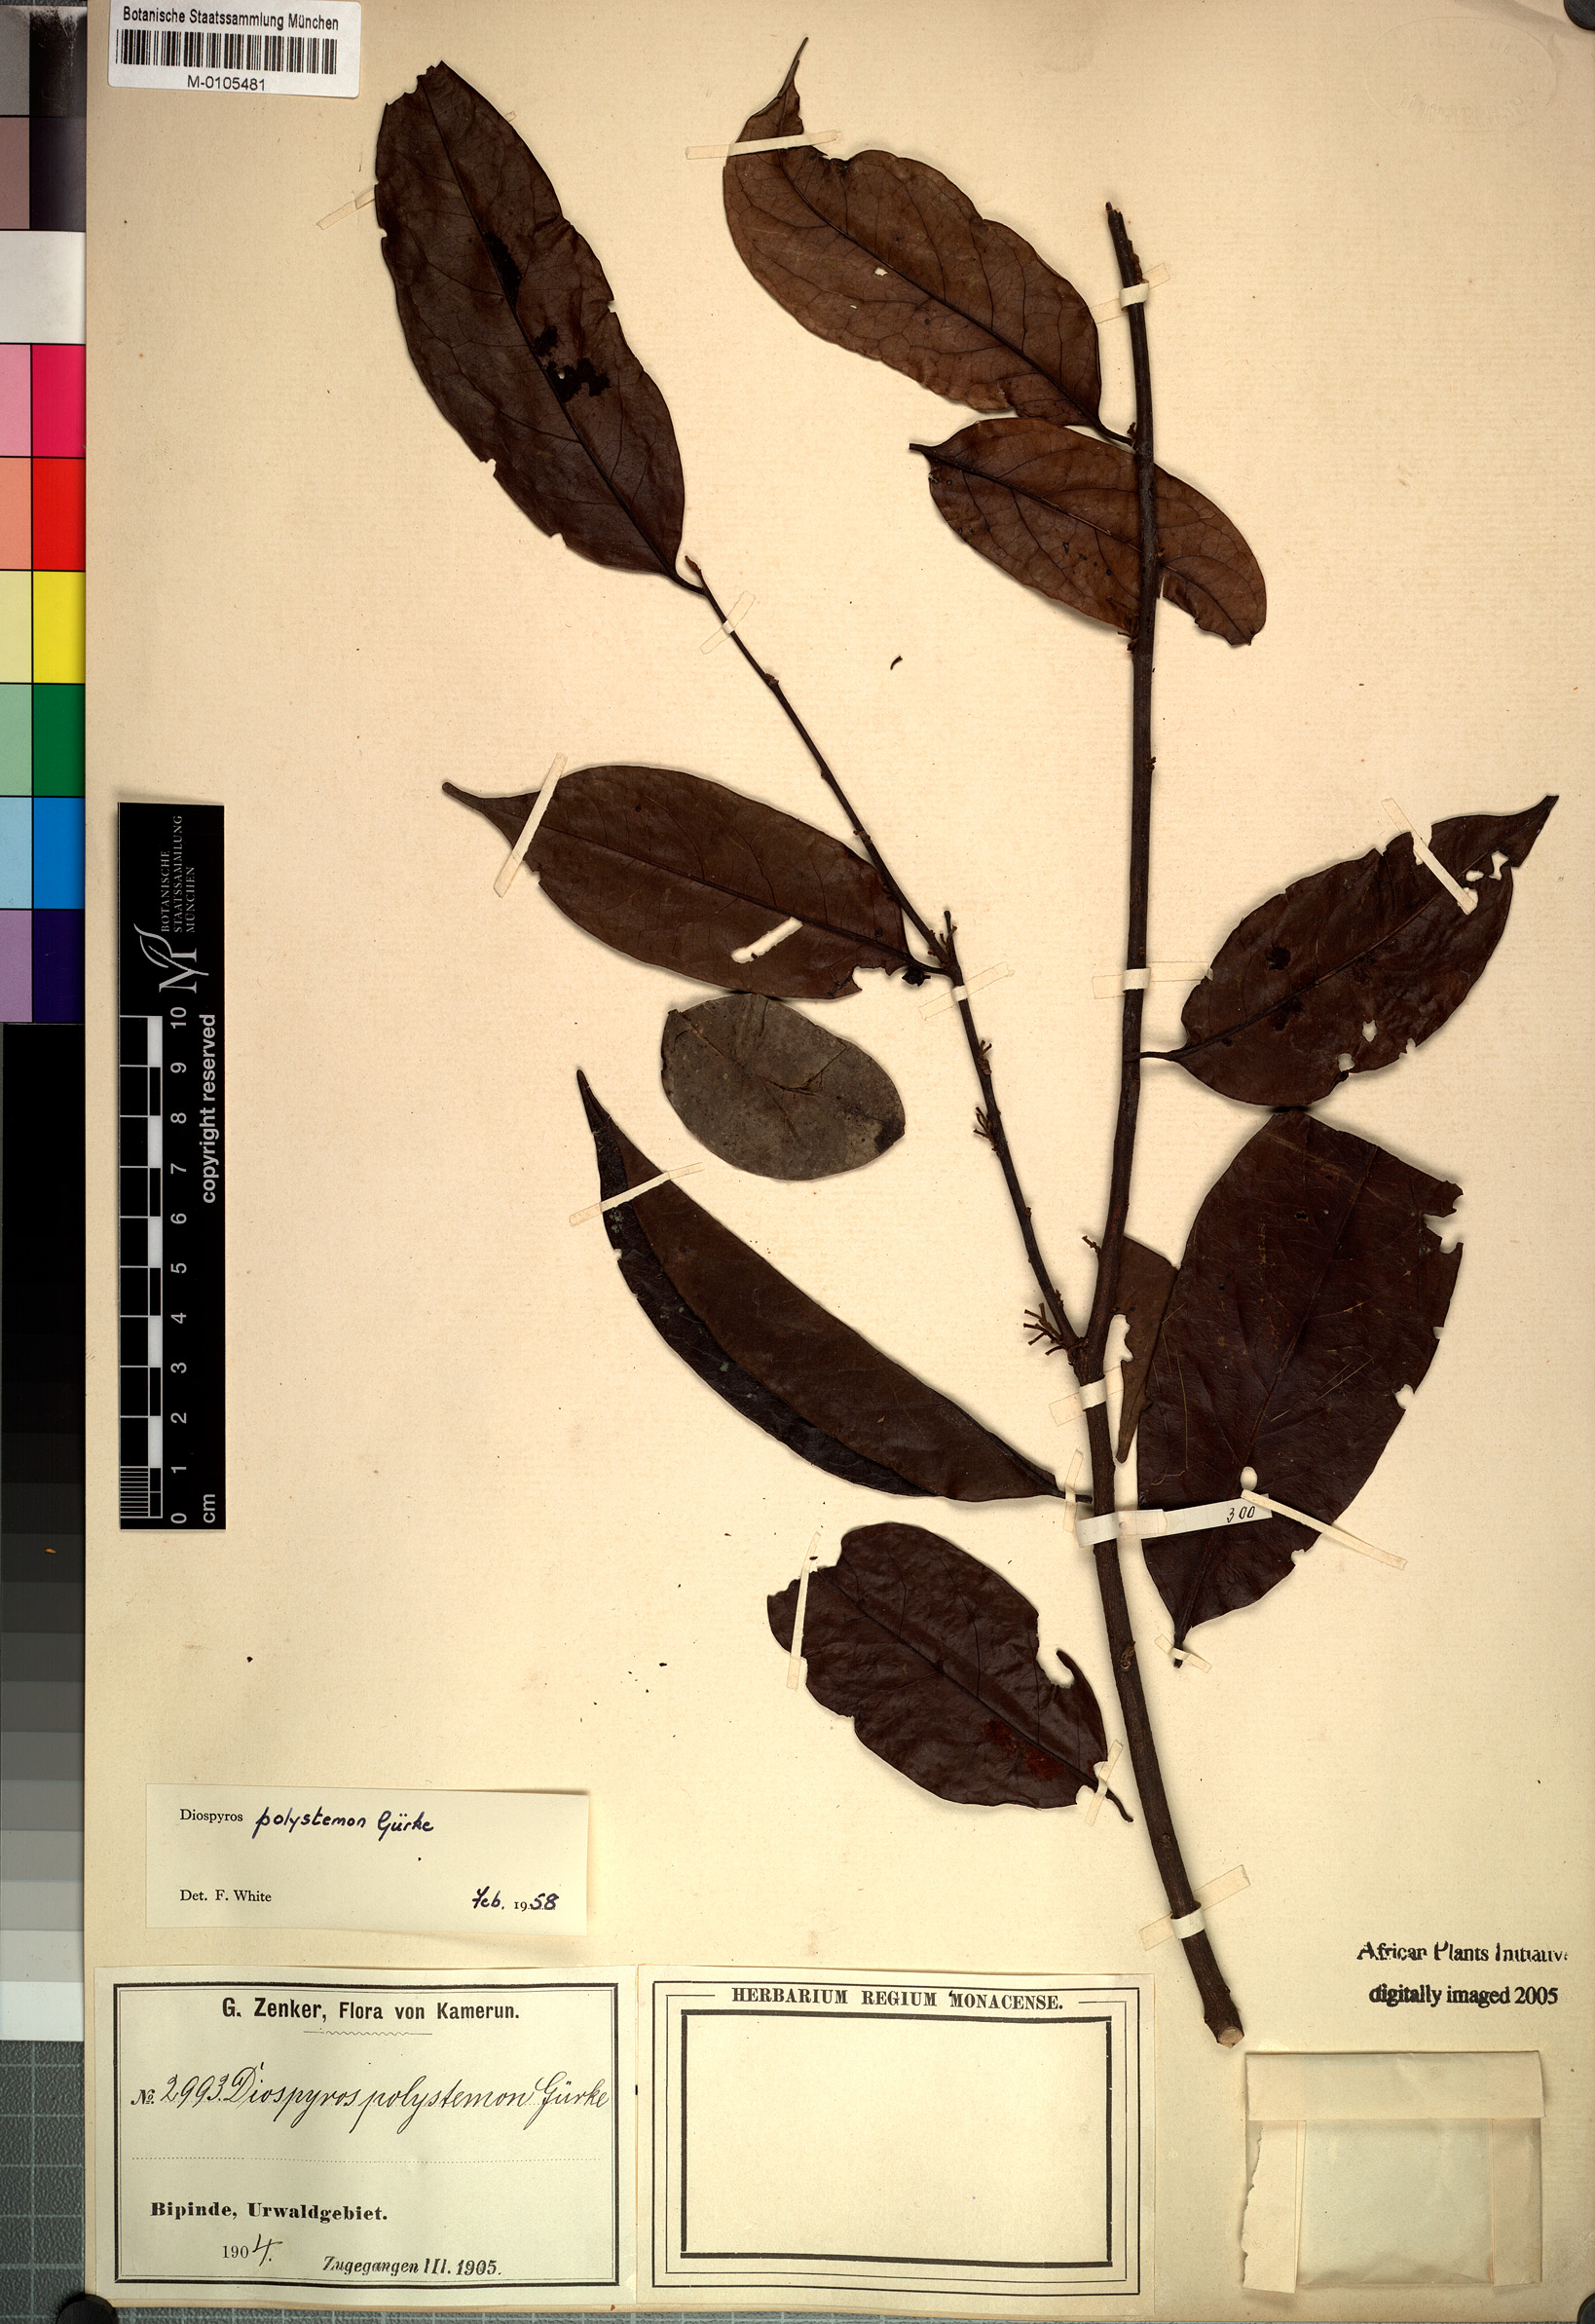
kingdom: Plantae
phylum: Tracheophyta
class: Magnoliopsida
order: Ericales
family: Ebenaceae
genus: Diospyros
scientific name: Diospyros polystemon
